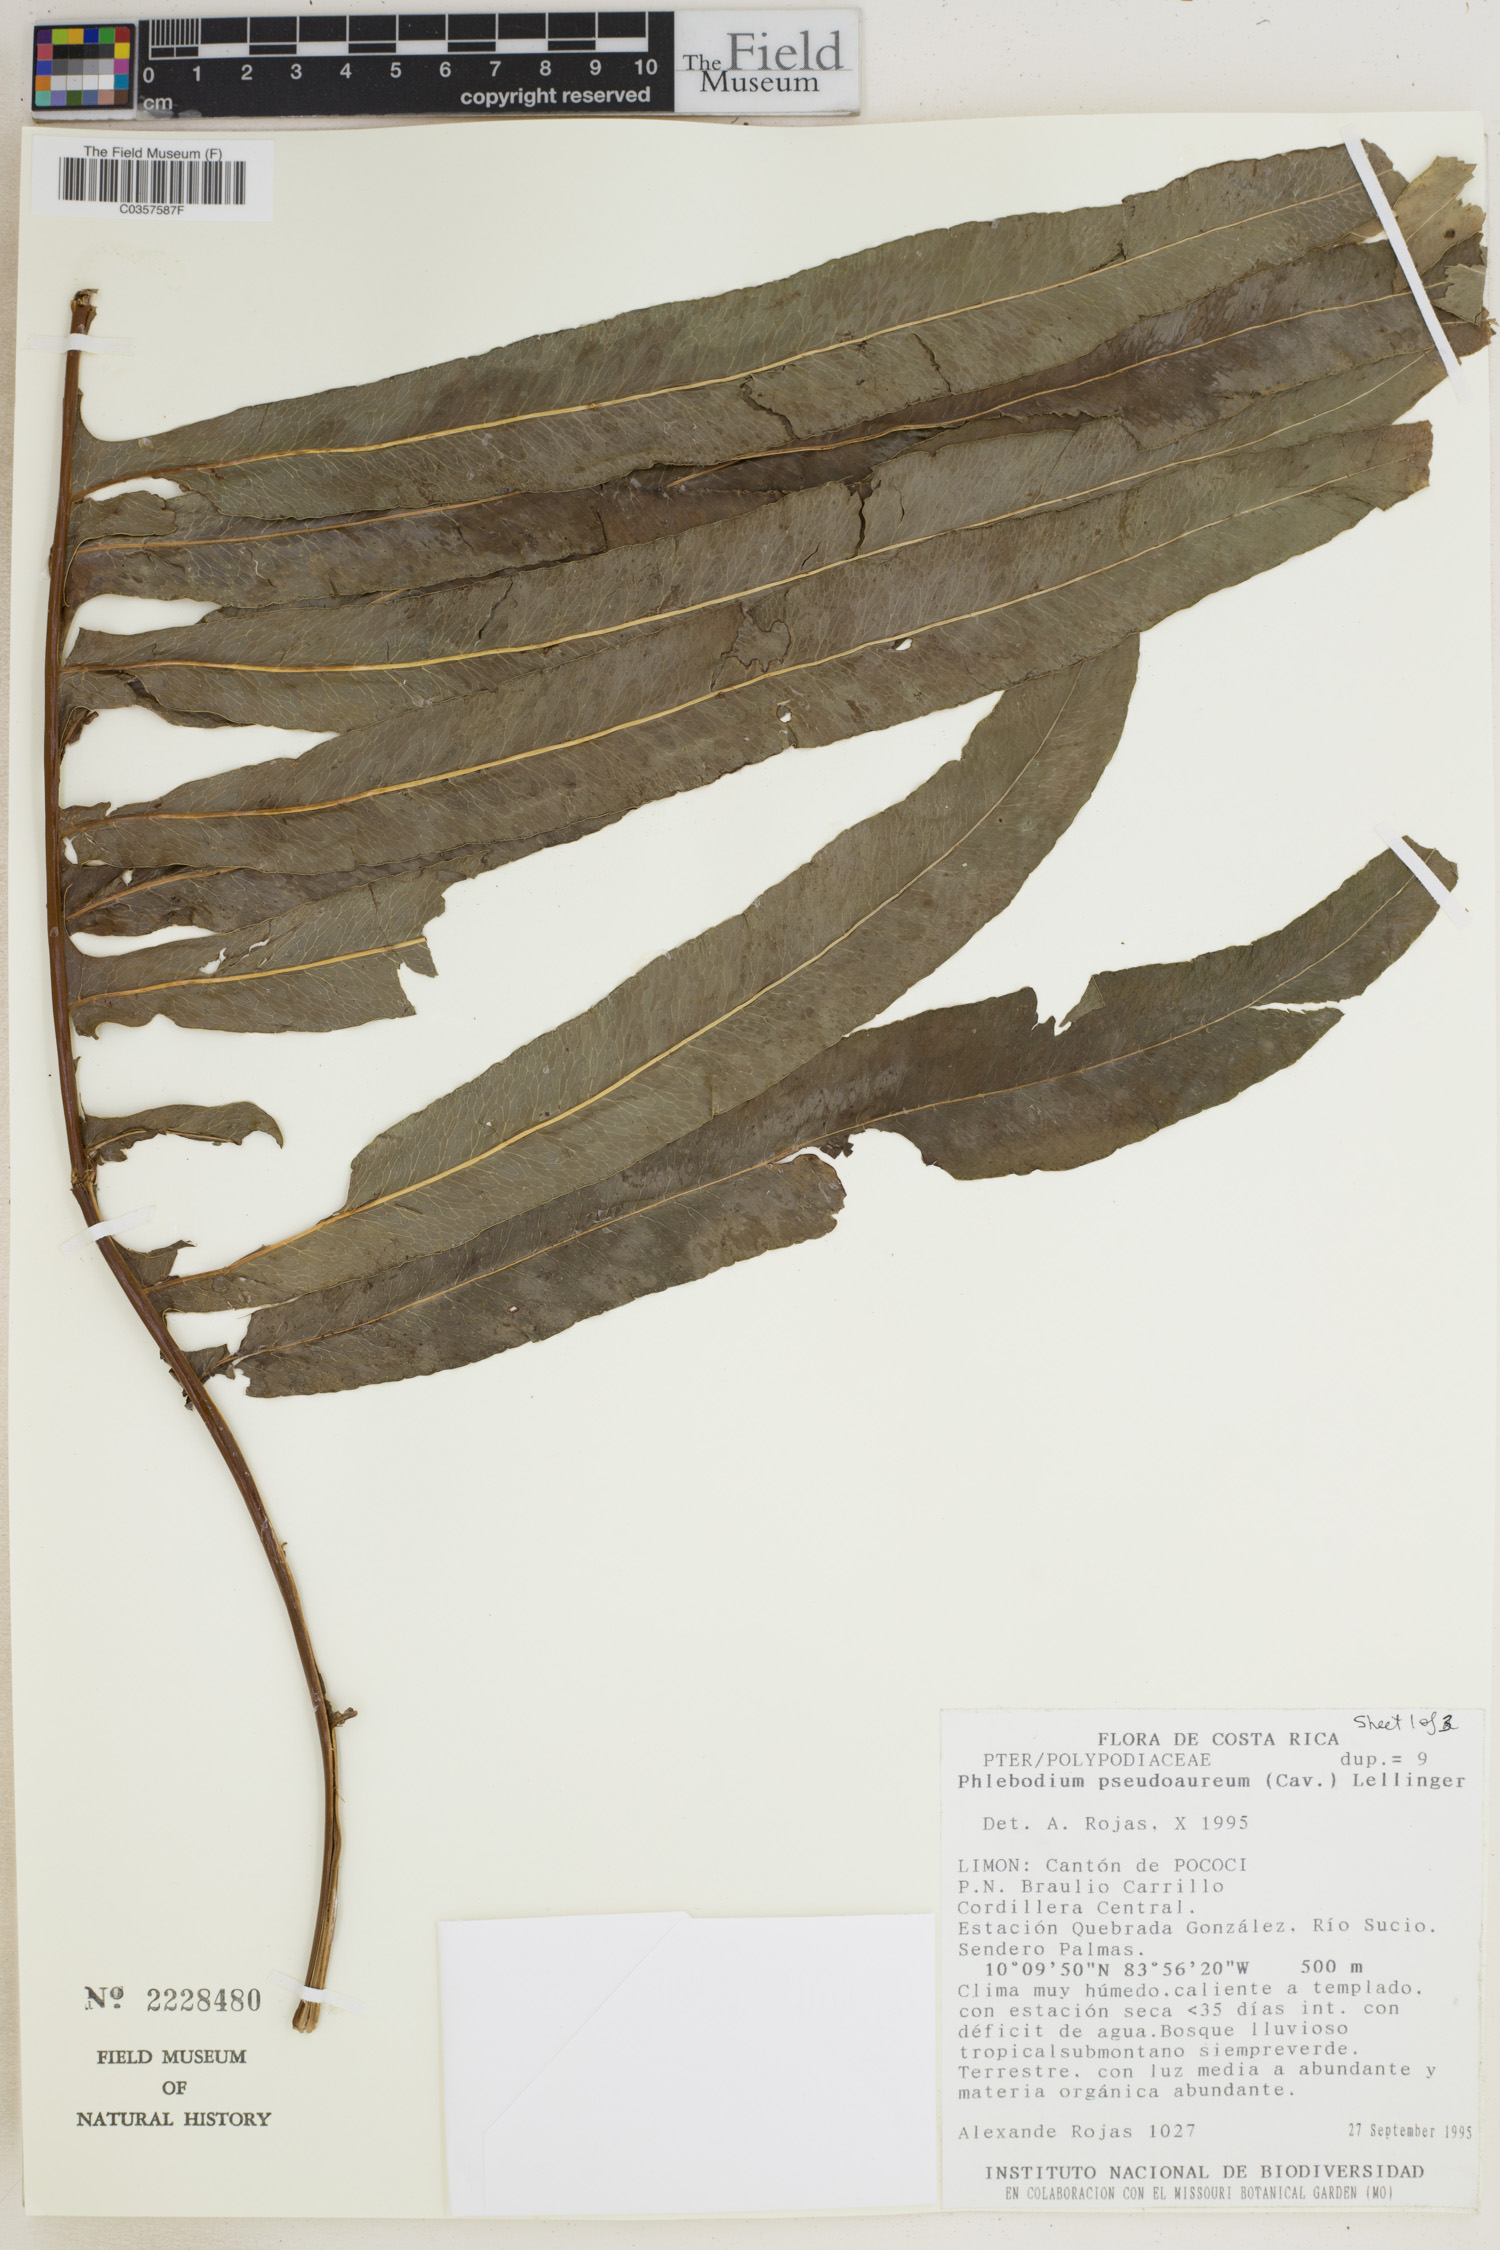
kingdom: Plantae
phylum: Tracheophyta
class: Polypodiopsida
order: Polypodiales
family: Polypodiaceae
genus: Phlebodium
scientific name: Phlebodium pseudoaureum
